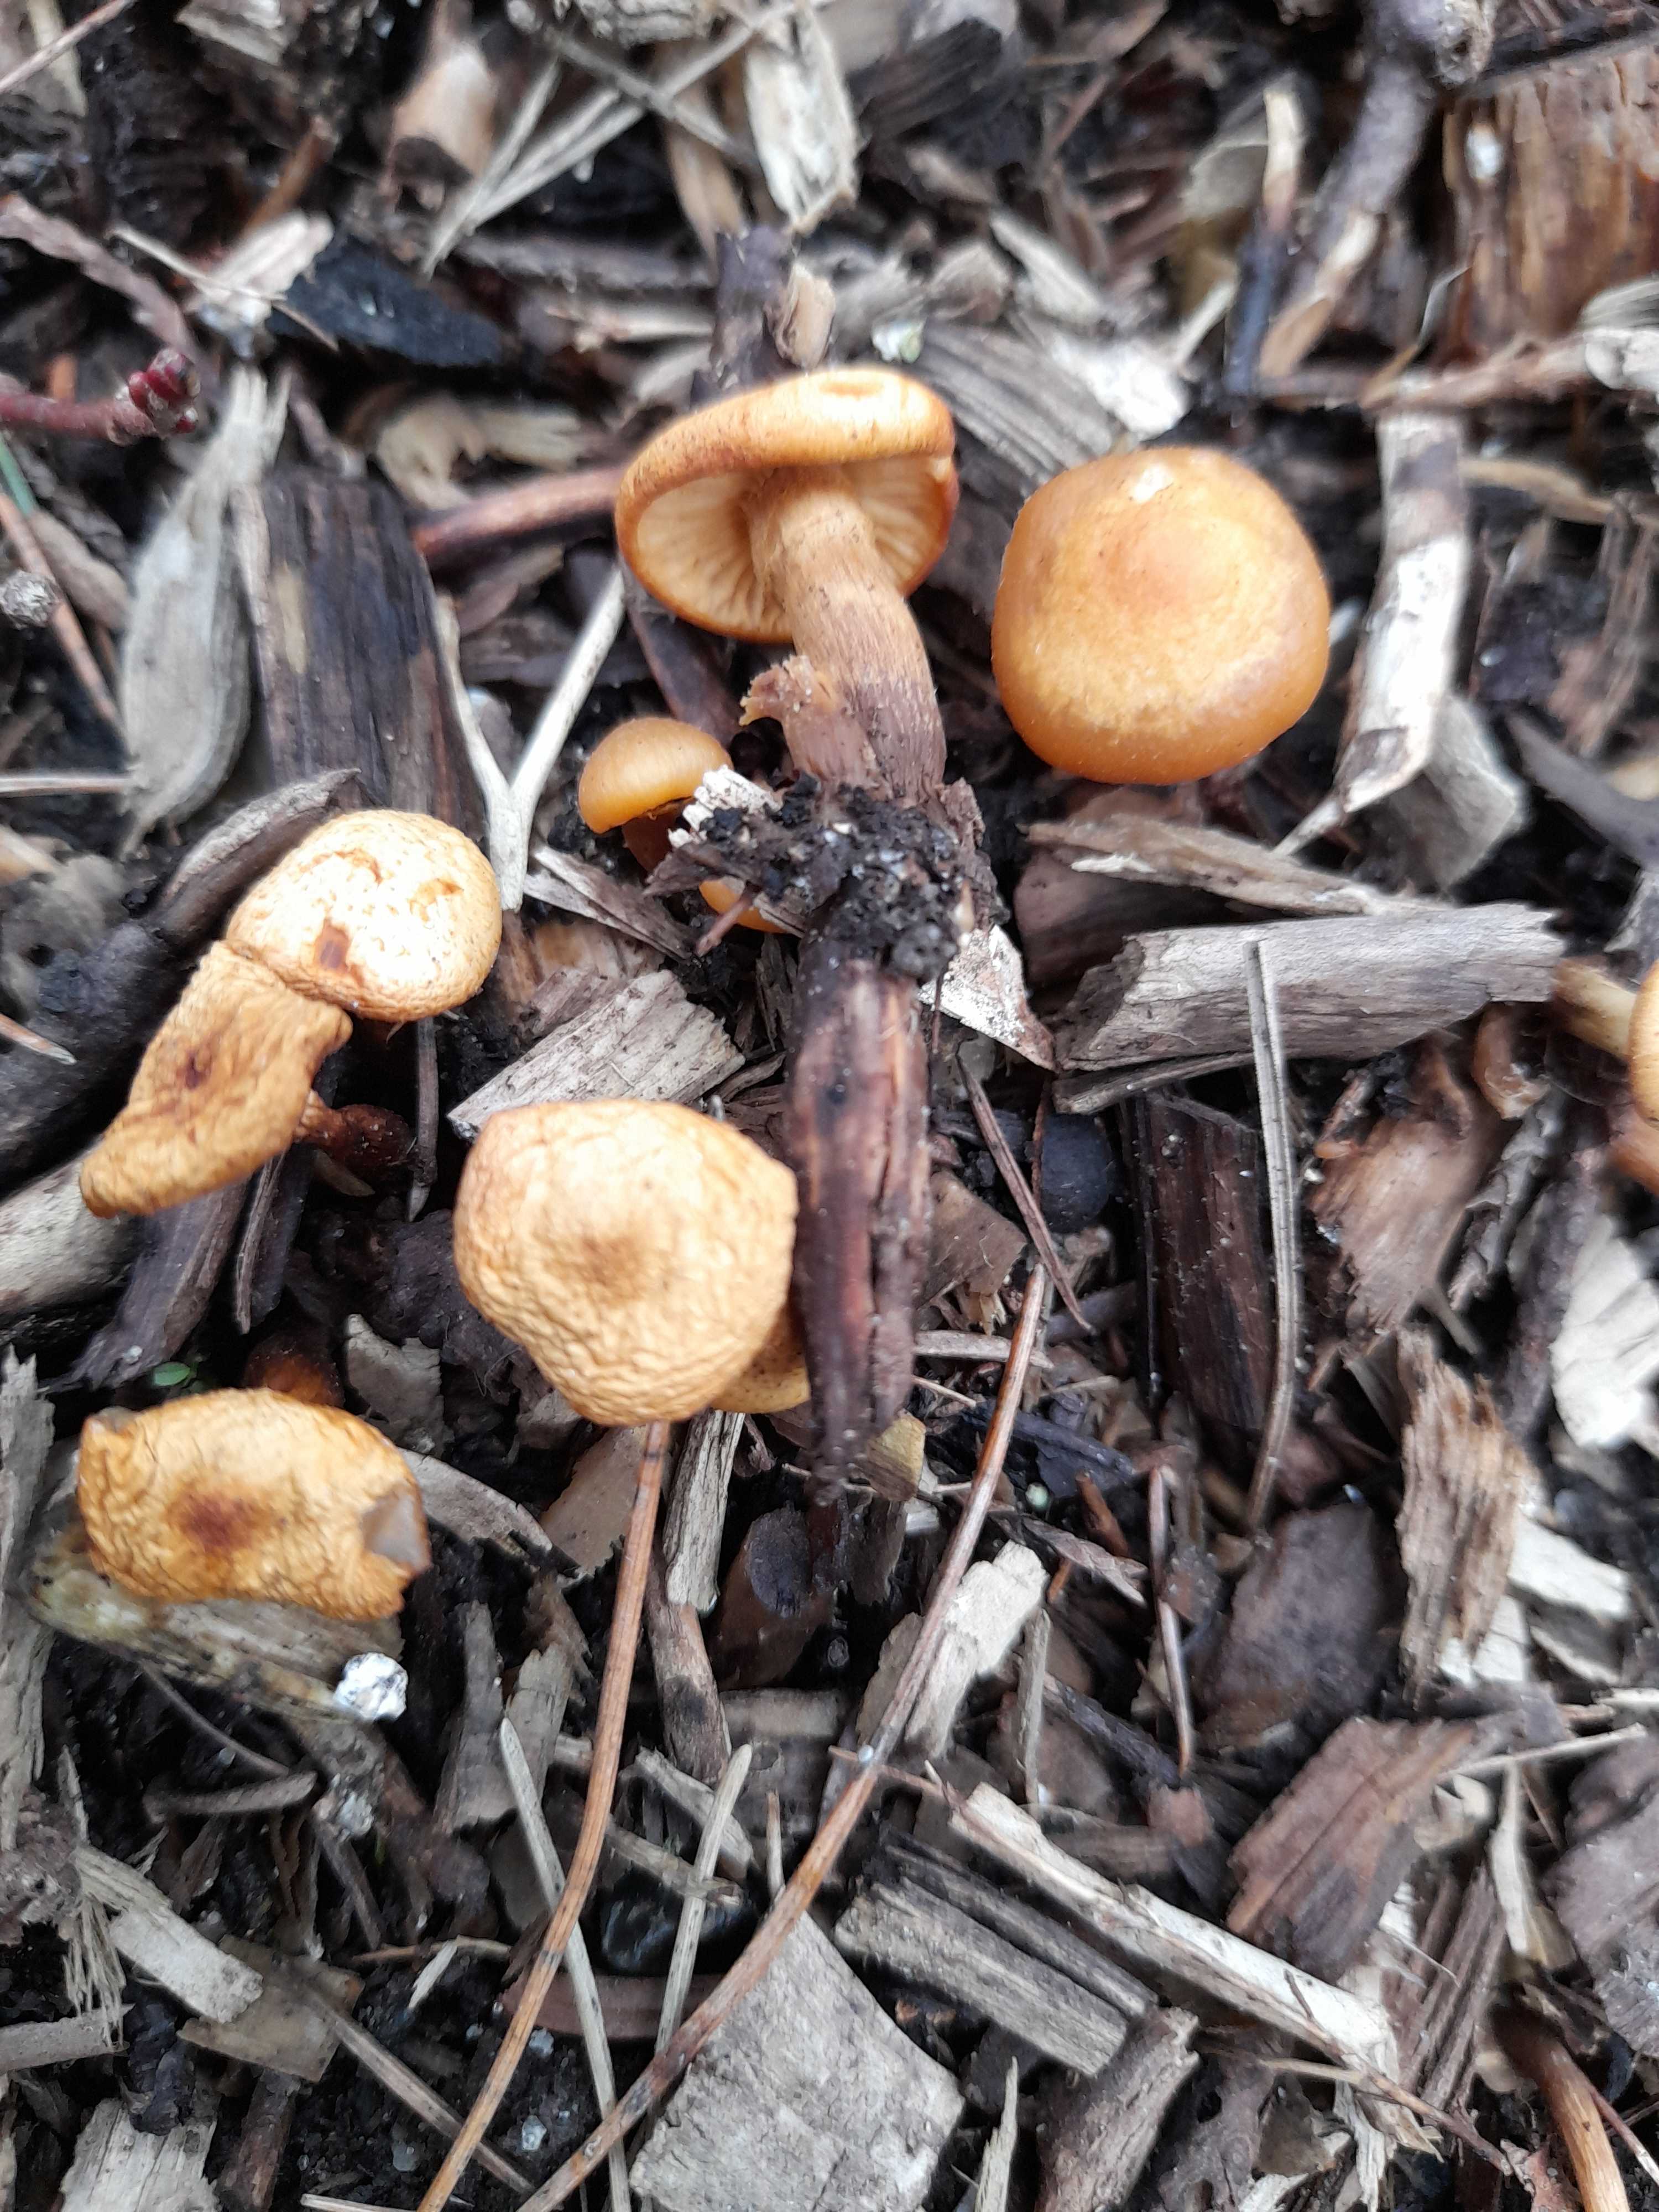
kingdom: Fungi
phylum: Basidiomycota
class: Agaricomycetes
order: Agaricales
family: Physalacriaceae
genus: Flammulina
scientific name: Flammulina velutipes
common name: gul fløjlsfod
